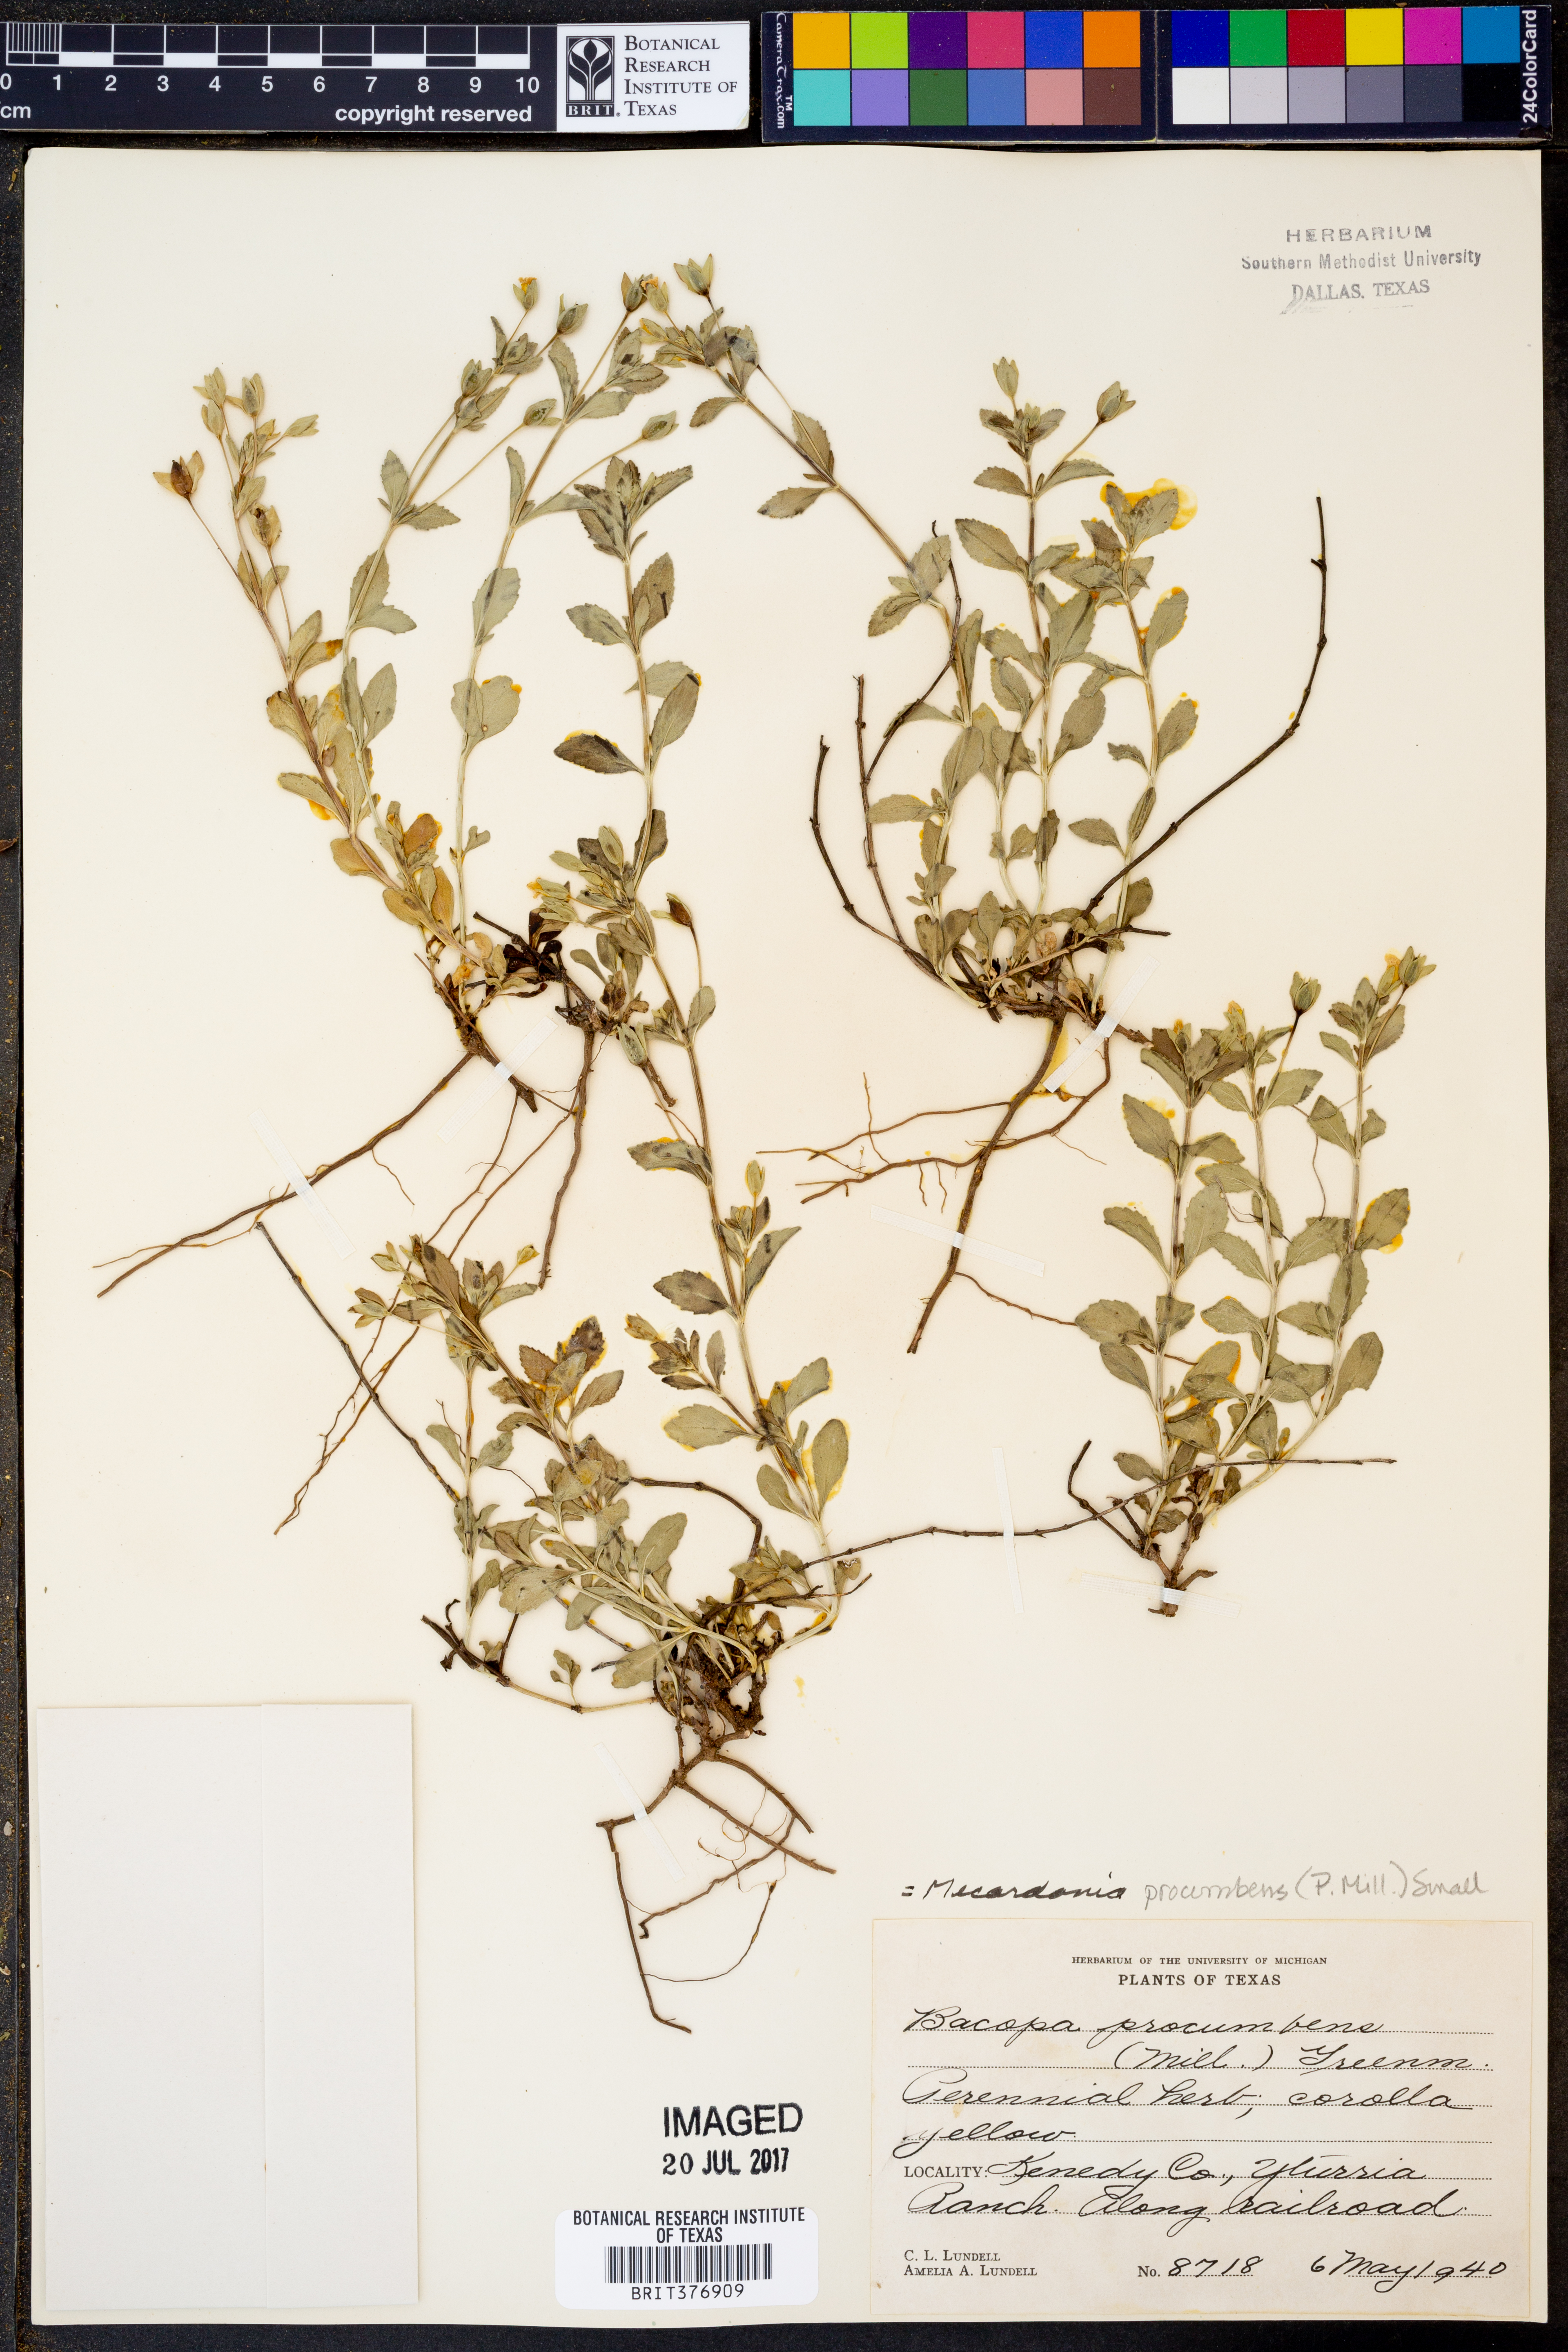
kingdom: Plantae
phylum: Tracheophyta
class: Magnoliopsida
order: Lamiales
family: Plantaginaceae
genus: Mecardonia
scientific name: Mecardonia procumbens
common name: Baby jump-up
